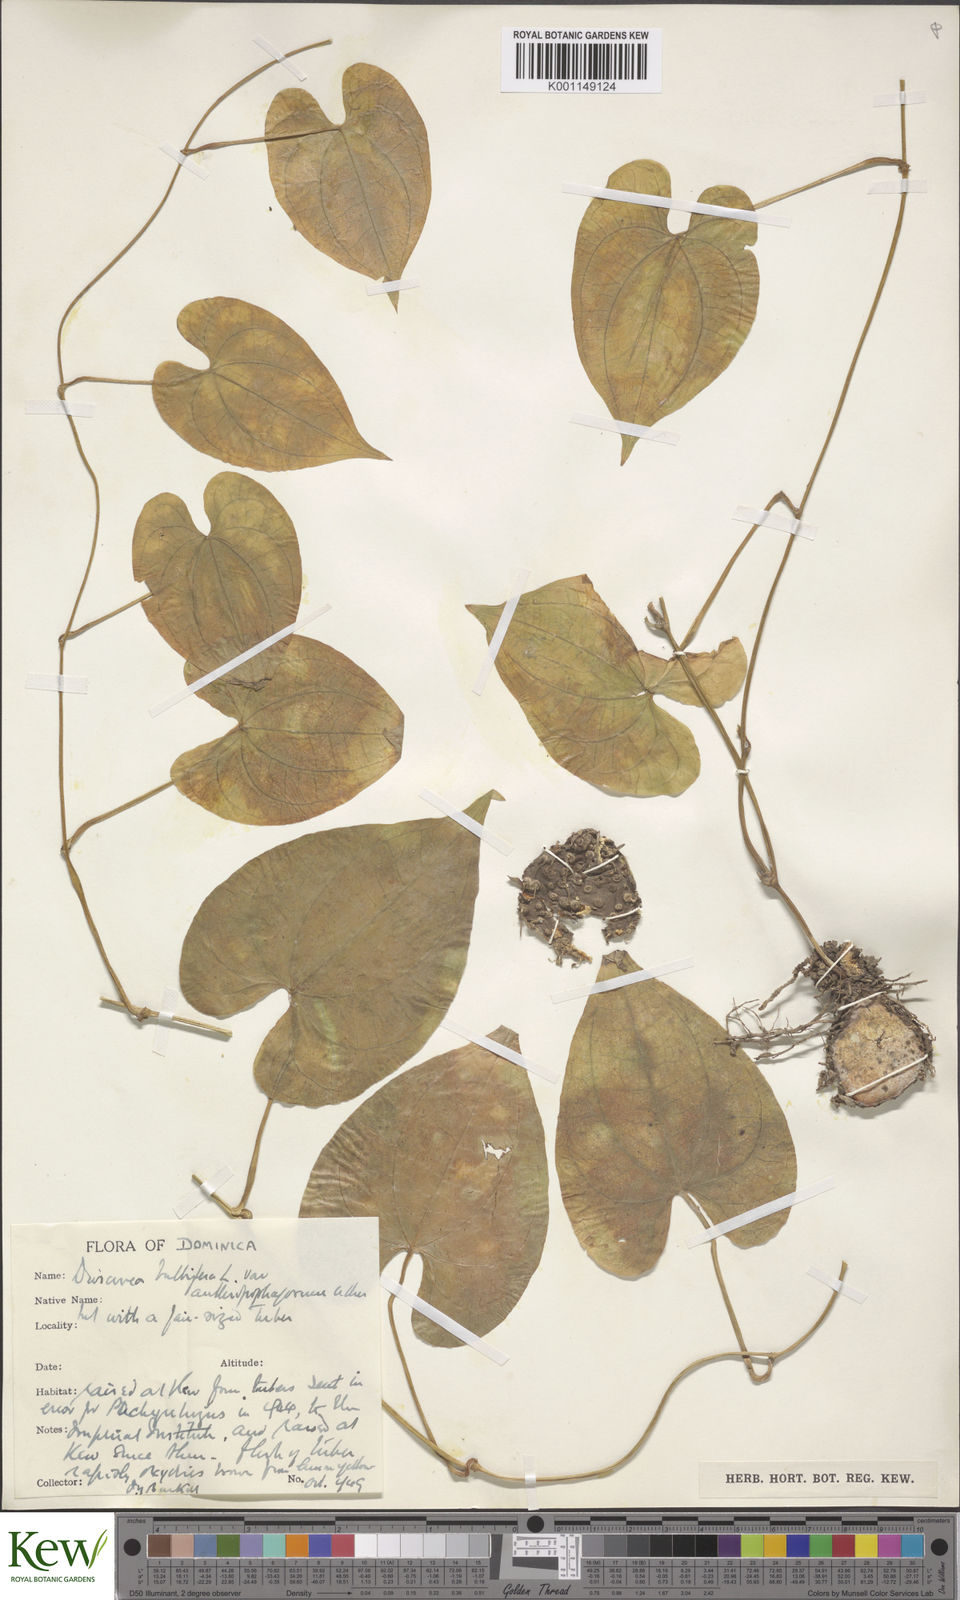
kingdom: Plantae
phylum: Tracheophyta
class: Liliopsida
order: Dioscoreales
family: Dioscoreaceae
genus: Dioscorea
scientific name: Dioscorea bulbifera
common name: Air yam
